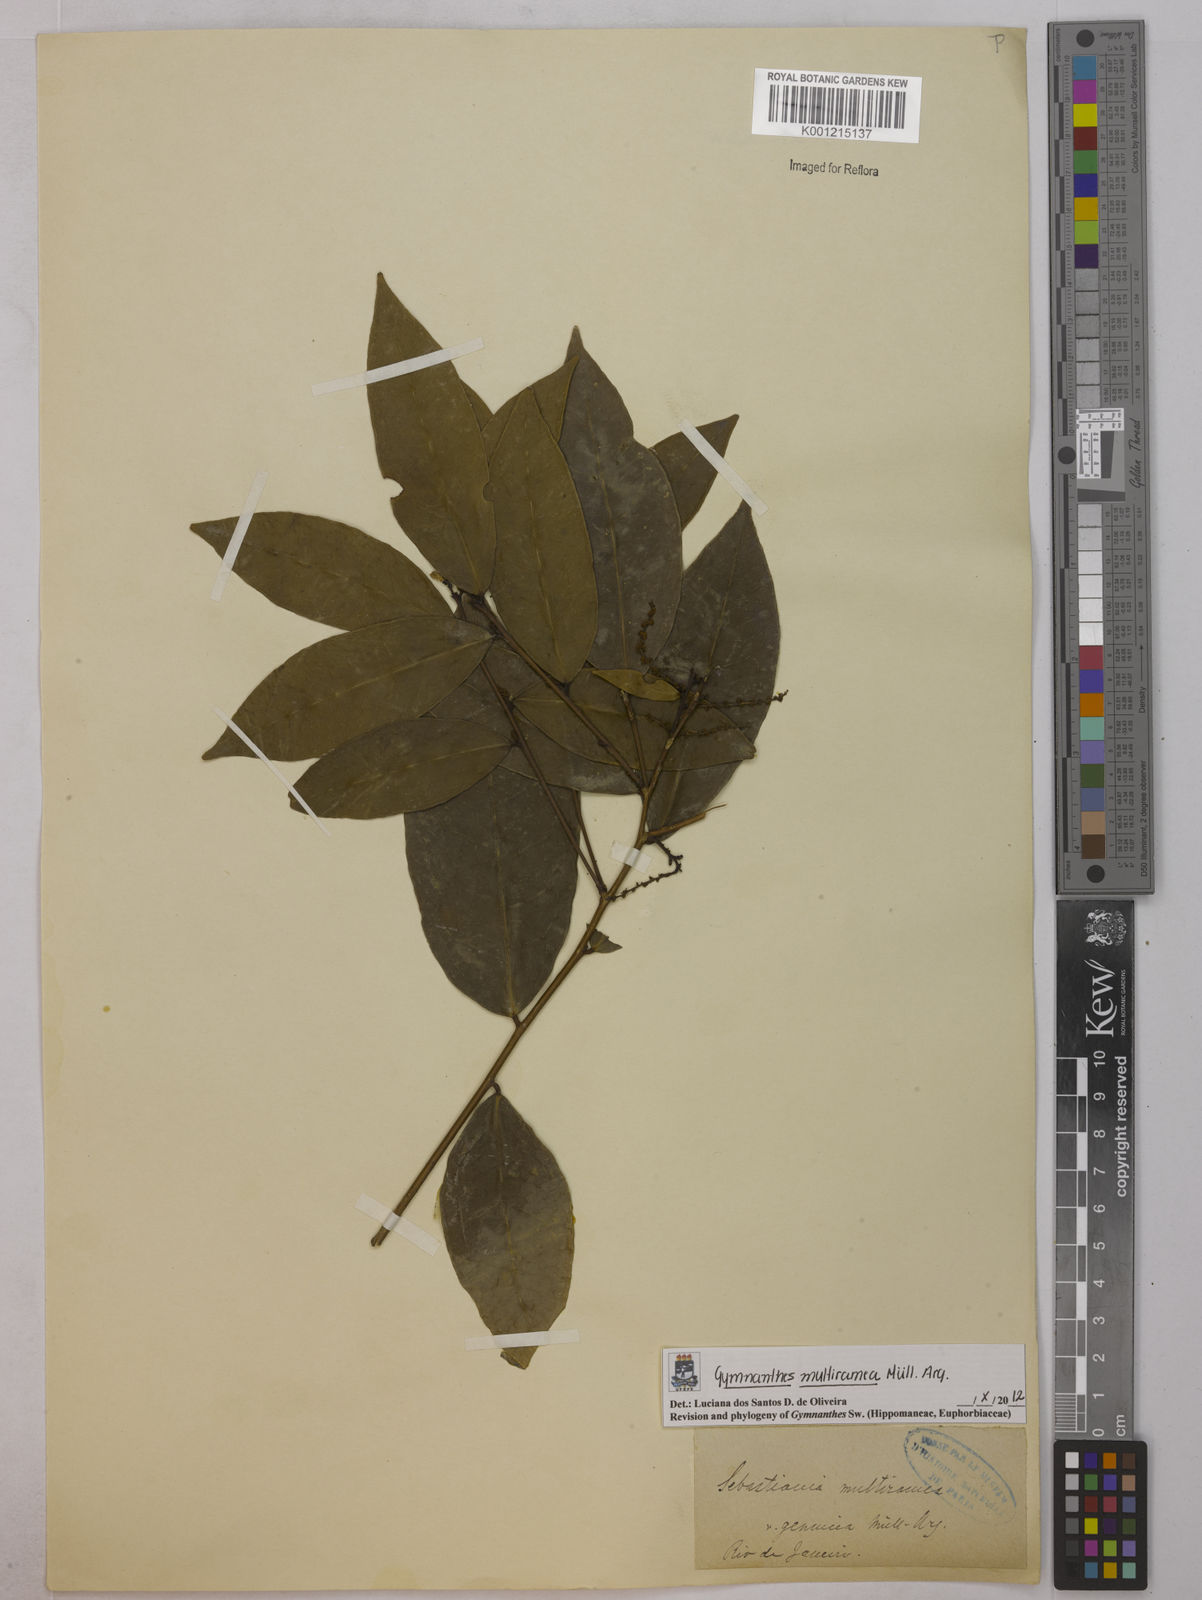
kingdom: Plantae
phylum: Tracheophyta
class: Magnoliopsida
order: Malpighiales
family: Euphorbiaceae
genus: Gymnanthes
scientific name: Gymnanthes
